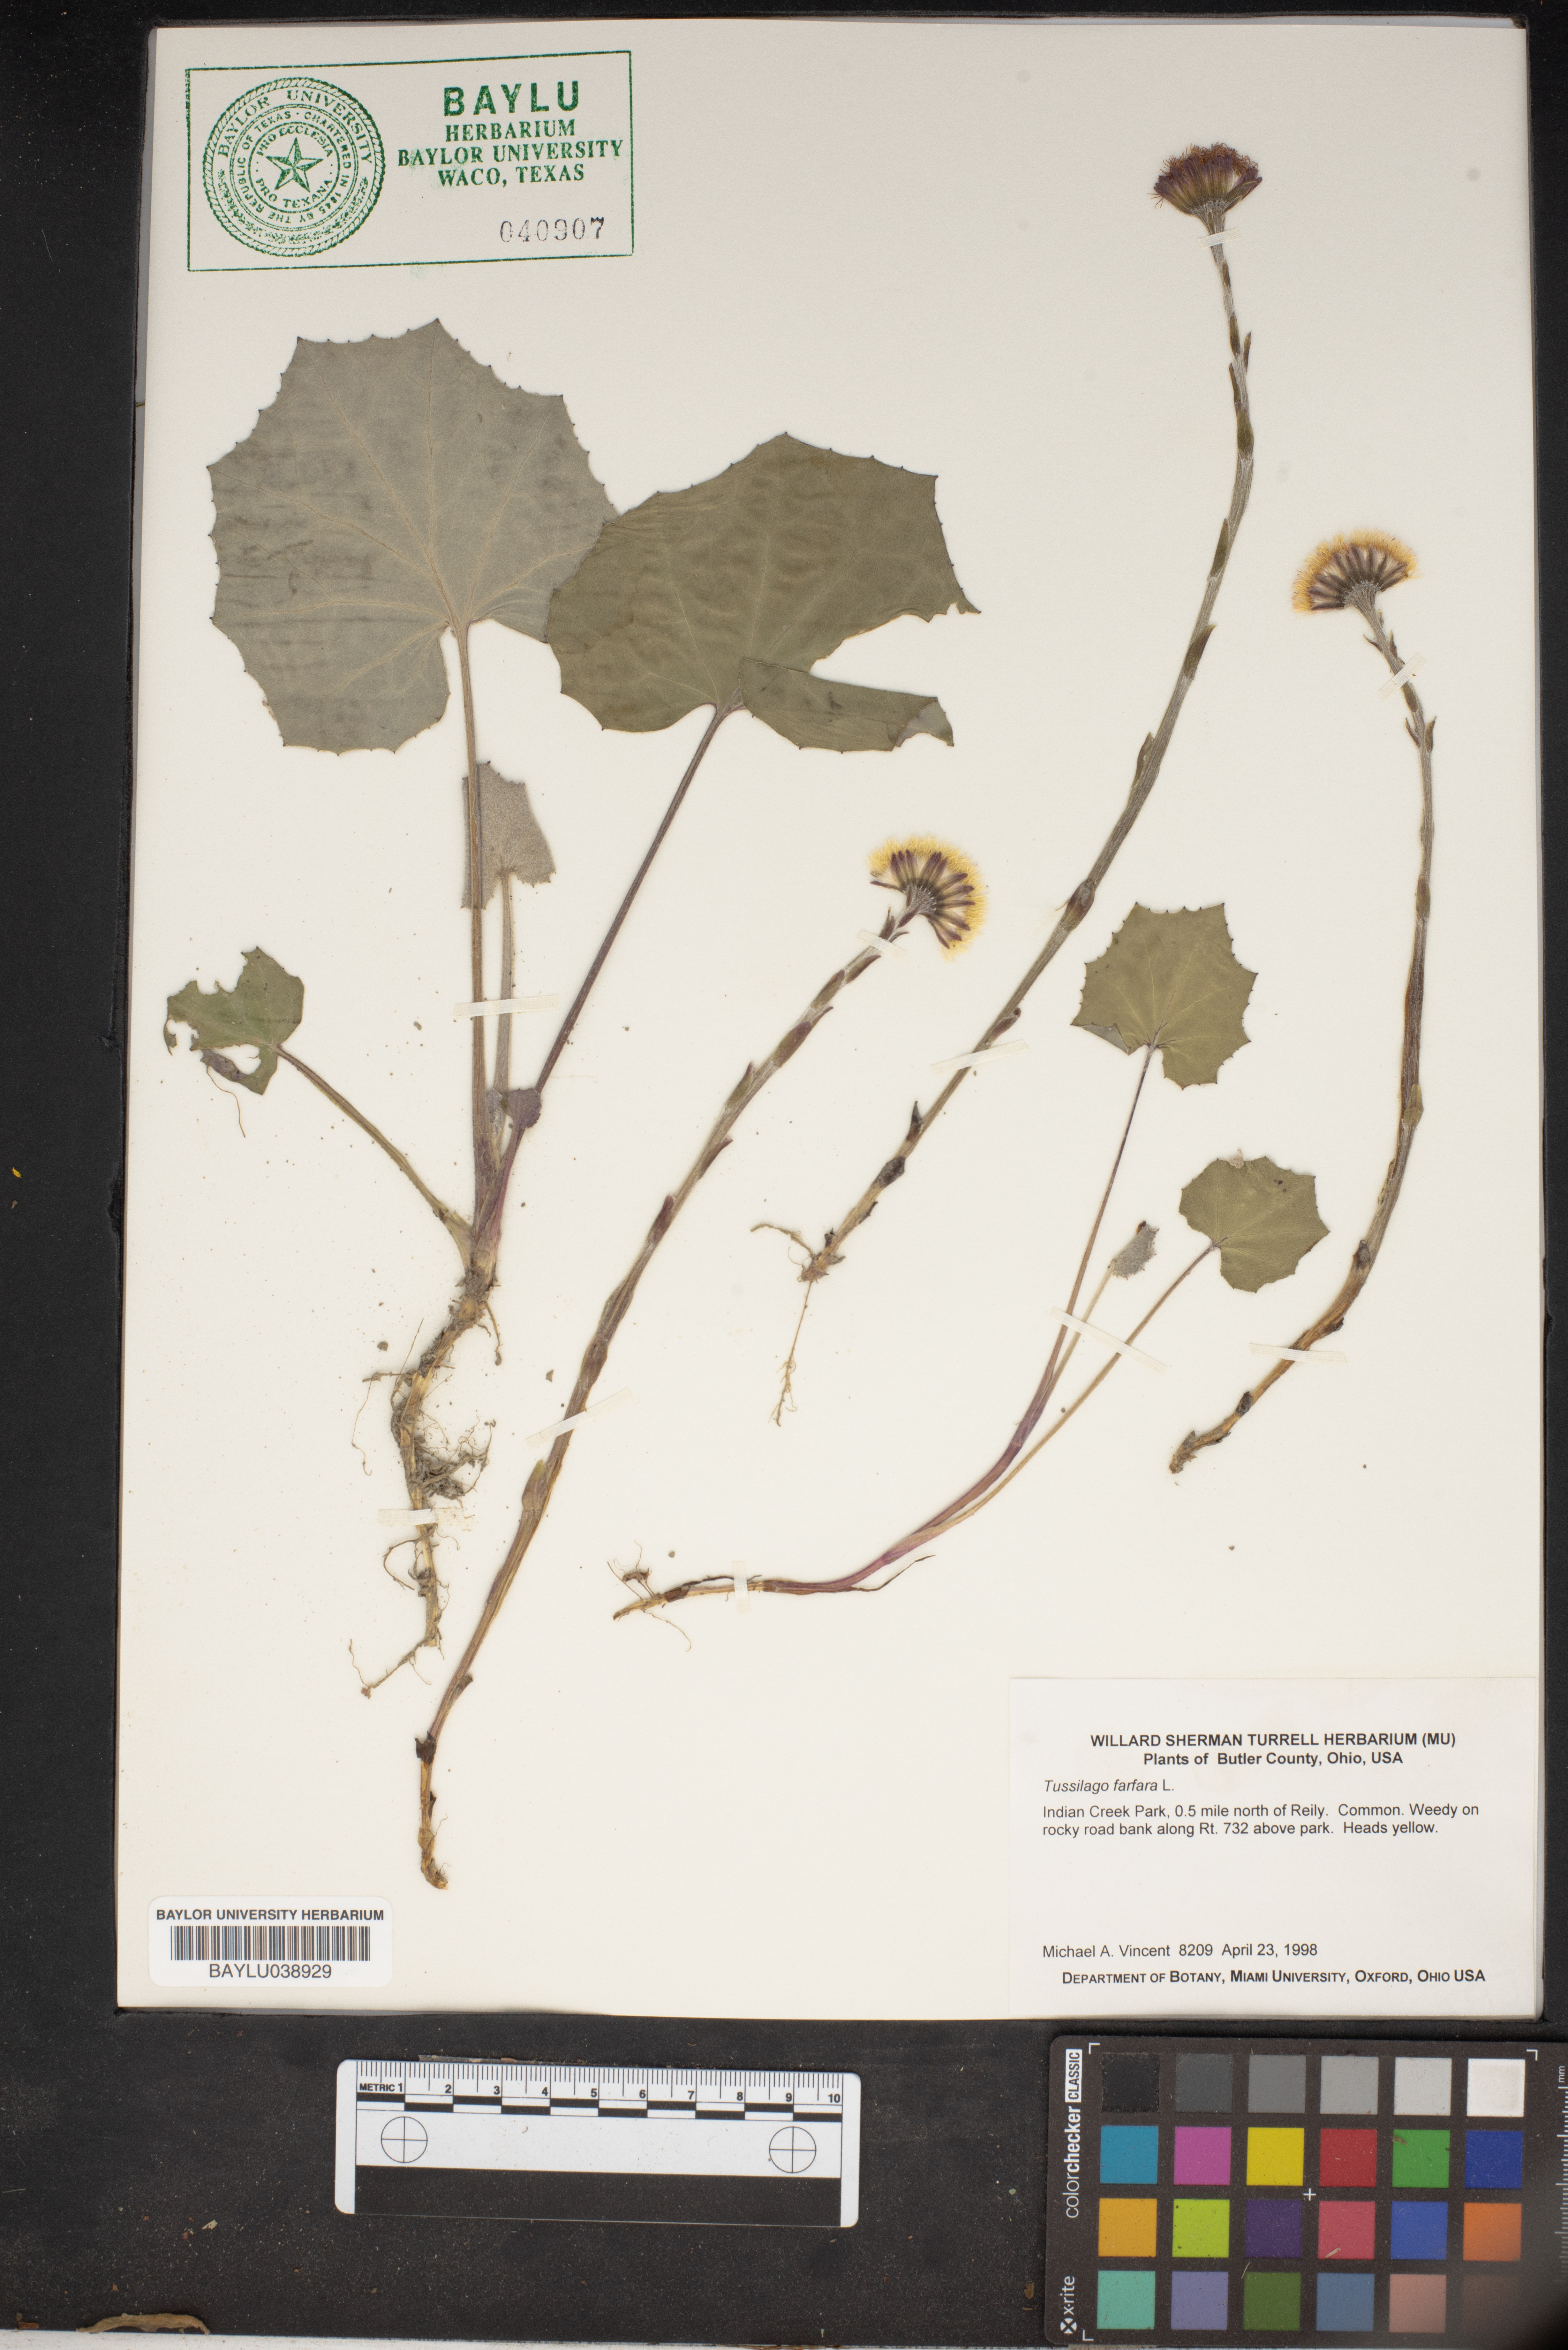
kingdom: Plantae
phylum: Tracheophyta
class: Magnoliopsida
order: Asterales
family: Asteraceae
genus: Tussilago
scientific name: Tussilago farfara
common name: Coltsfoot
